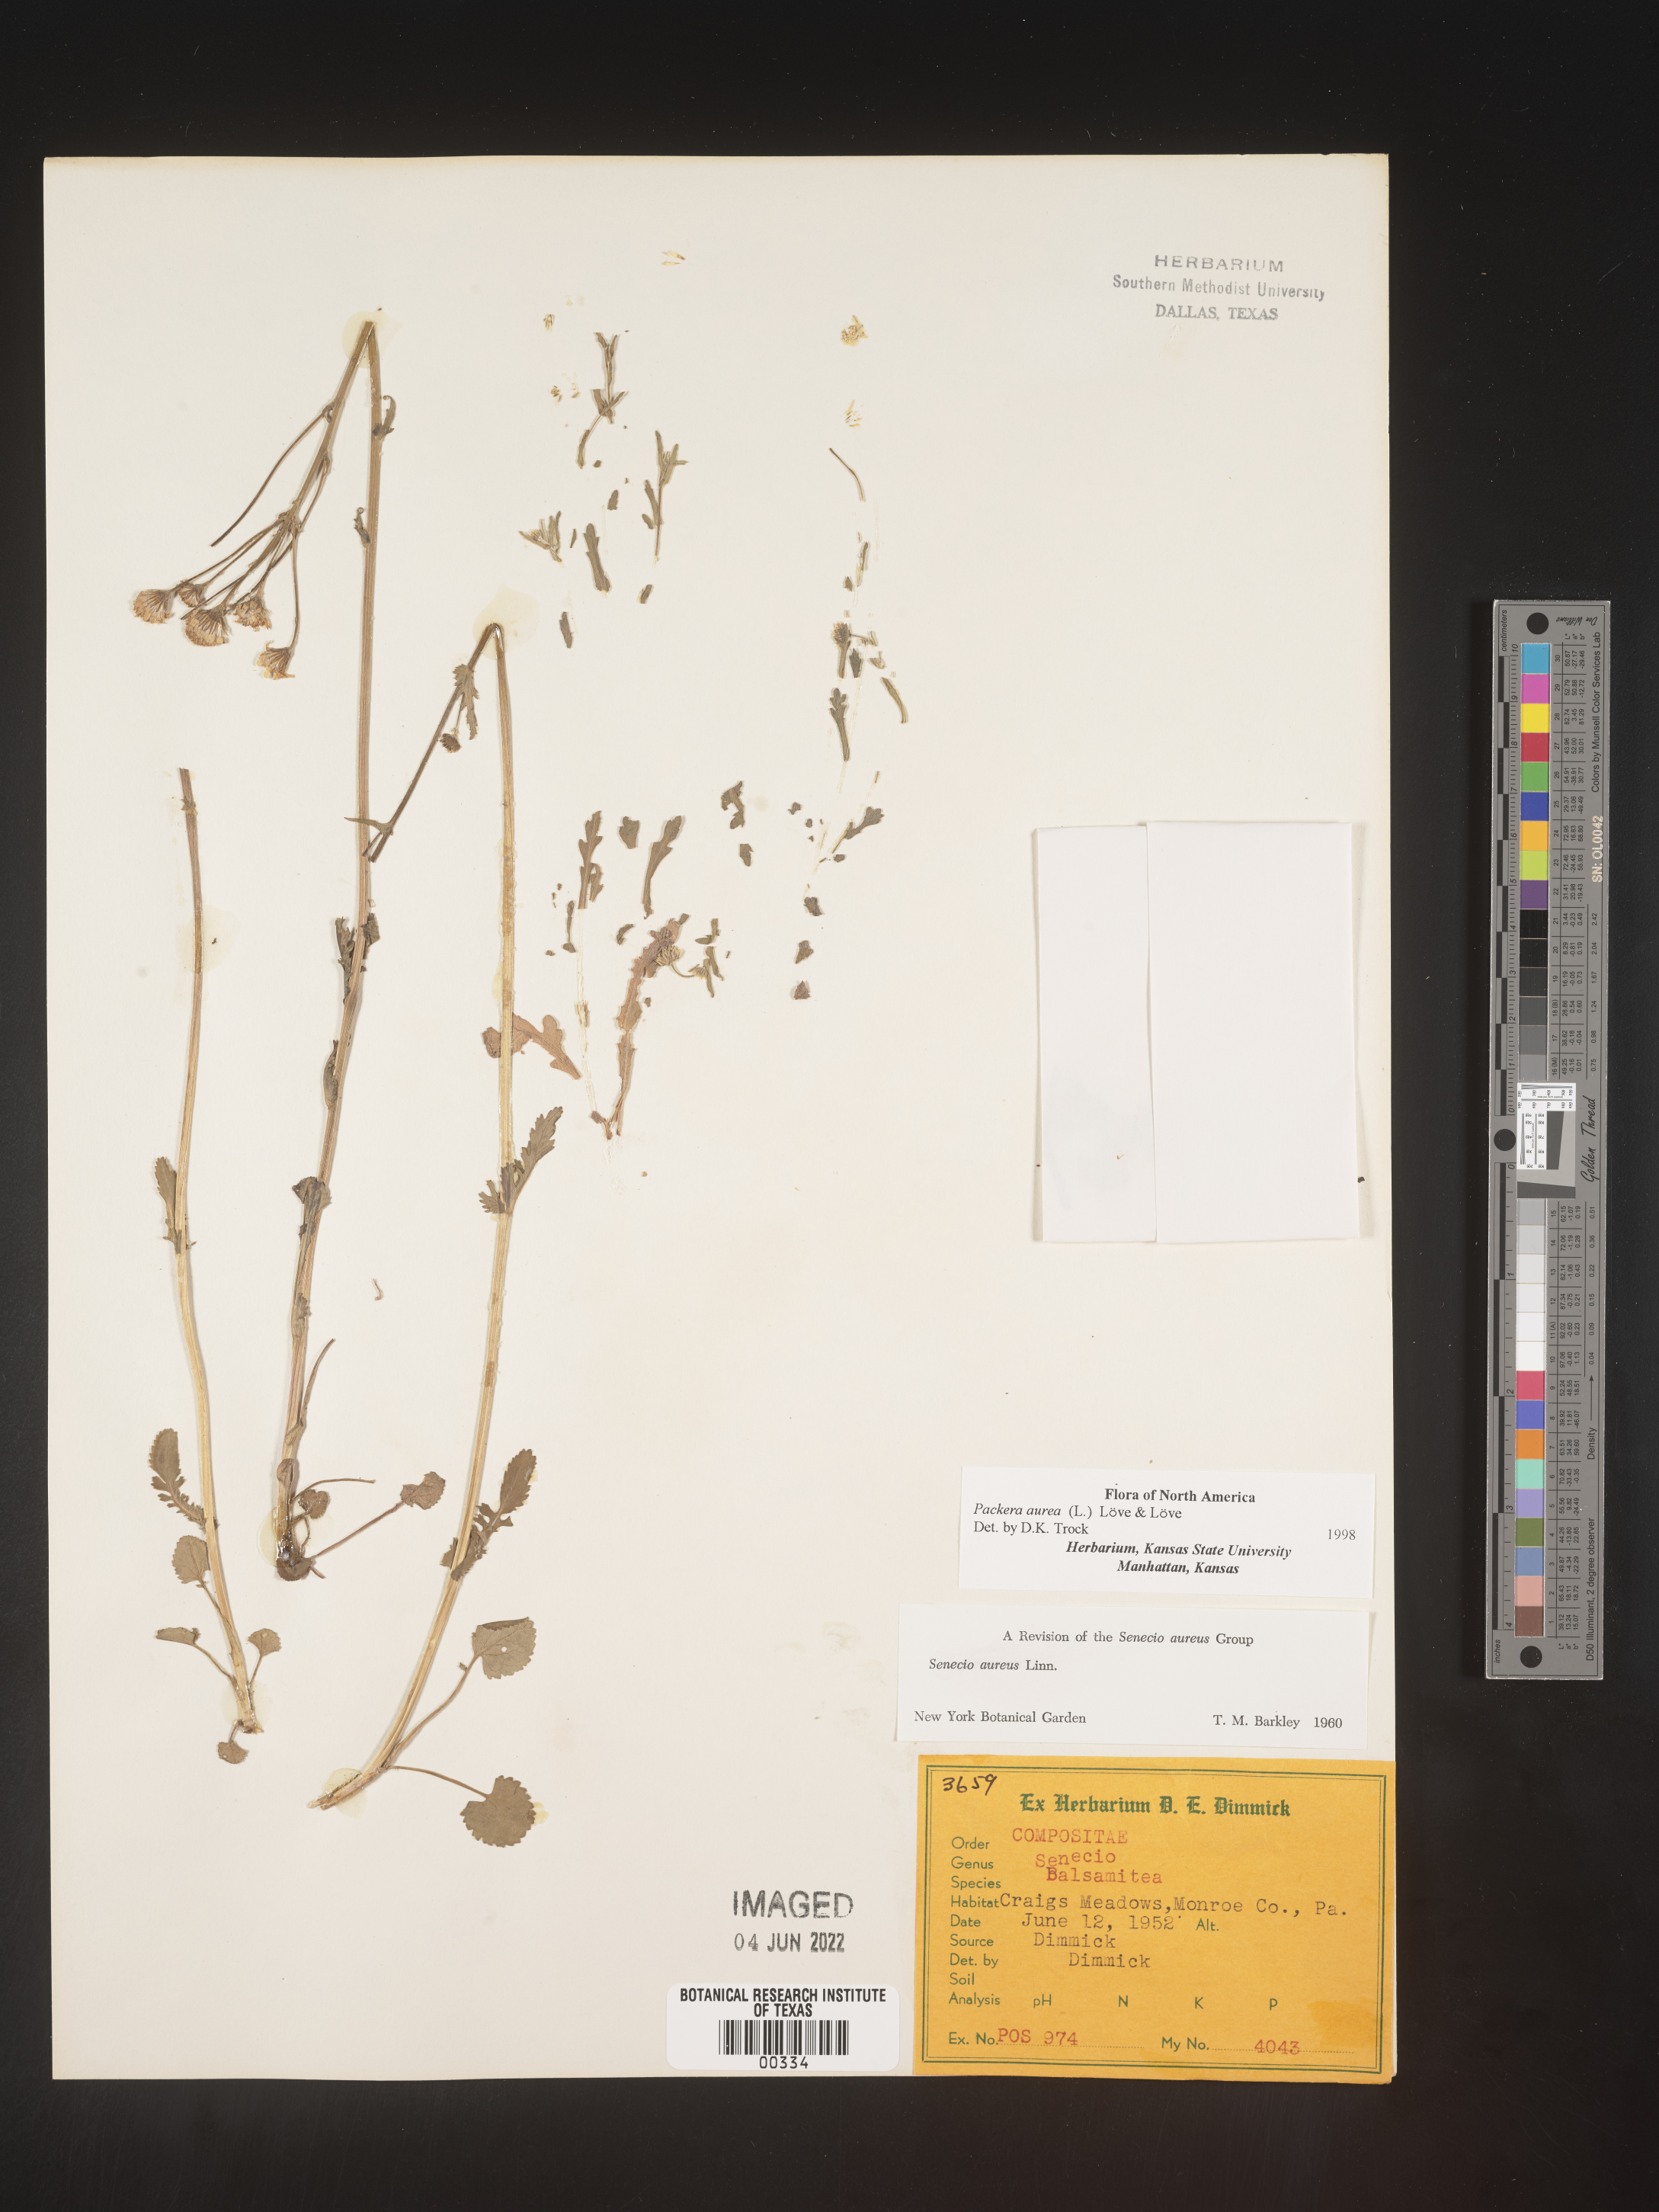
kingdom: Plantae
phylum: Tracheophyta
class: Magnoliopsida
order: Asterales
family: Asteraceae
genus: Packera
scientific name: Packera aurea
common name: Golden groundsel
